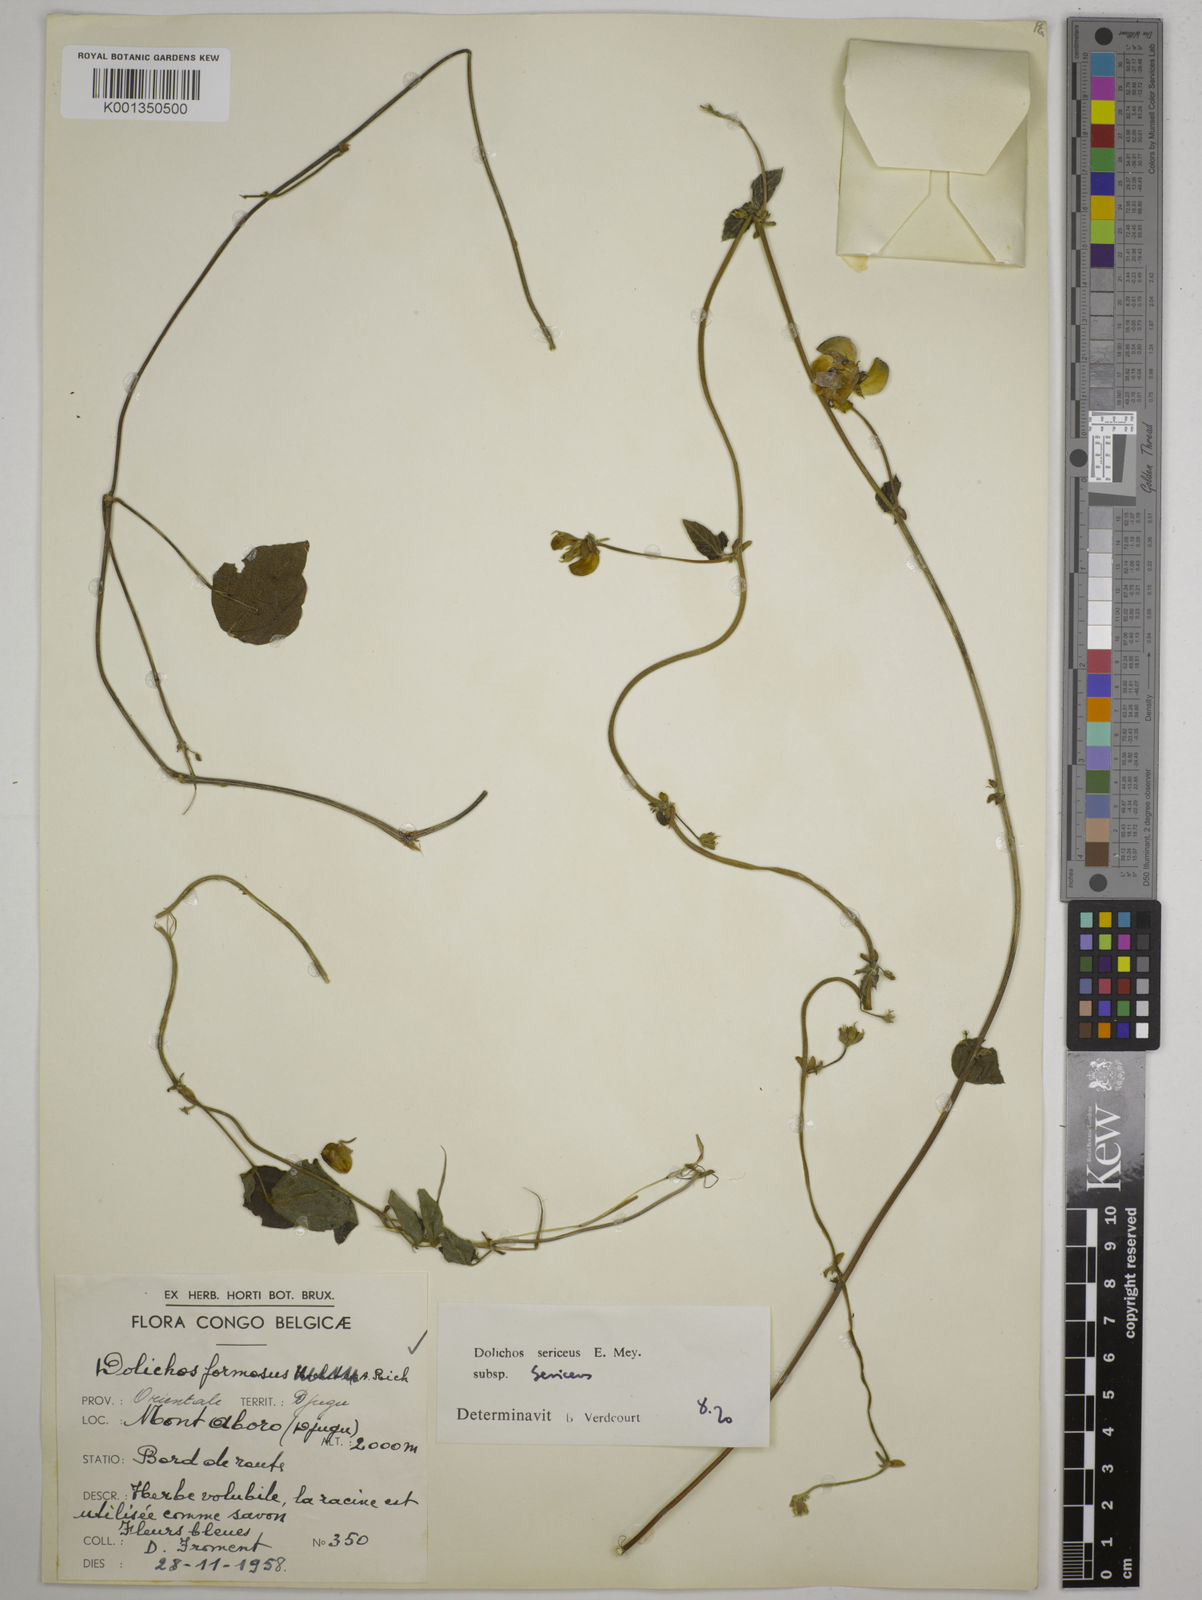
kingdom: Plantae
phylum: Tracheophyta
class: Magnoliopsida
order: Fabales
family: Fabaceae
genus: Dolichos
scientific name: Dolichos sericeus
